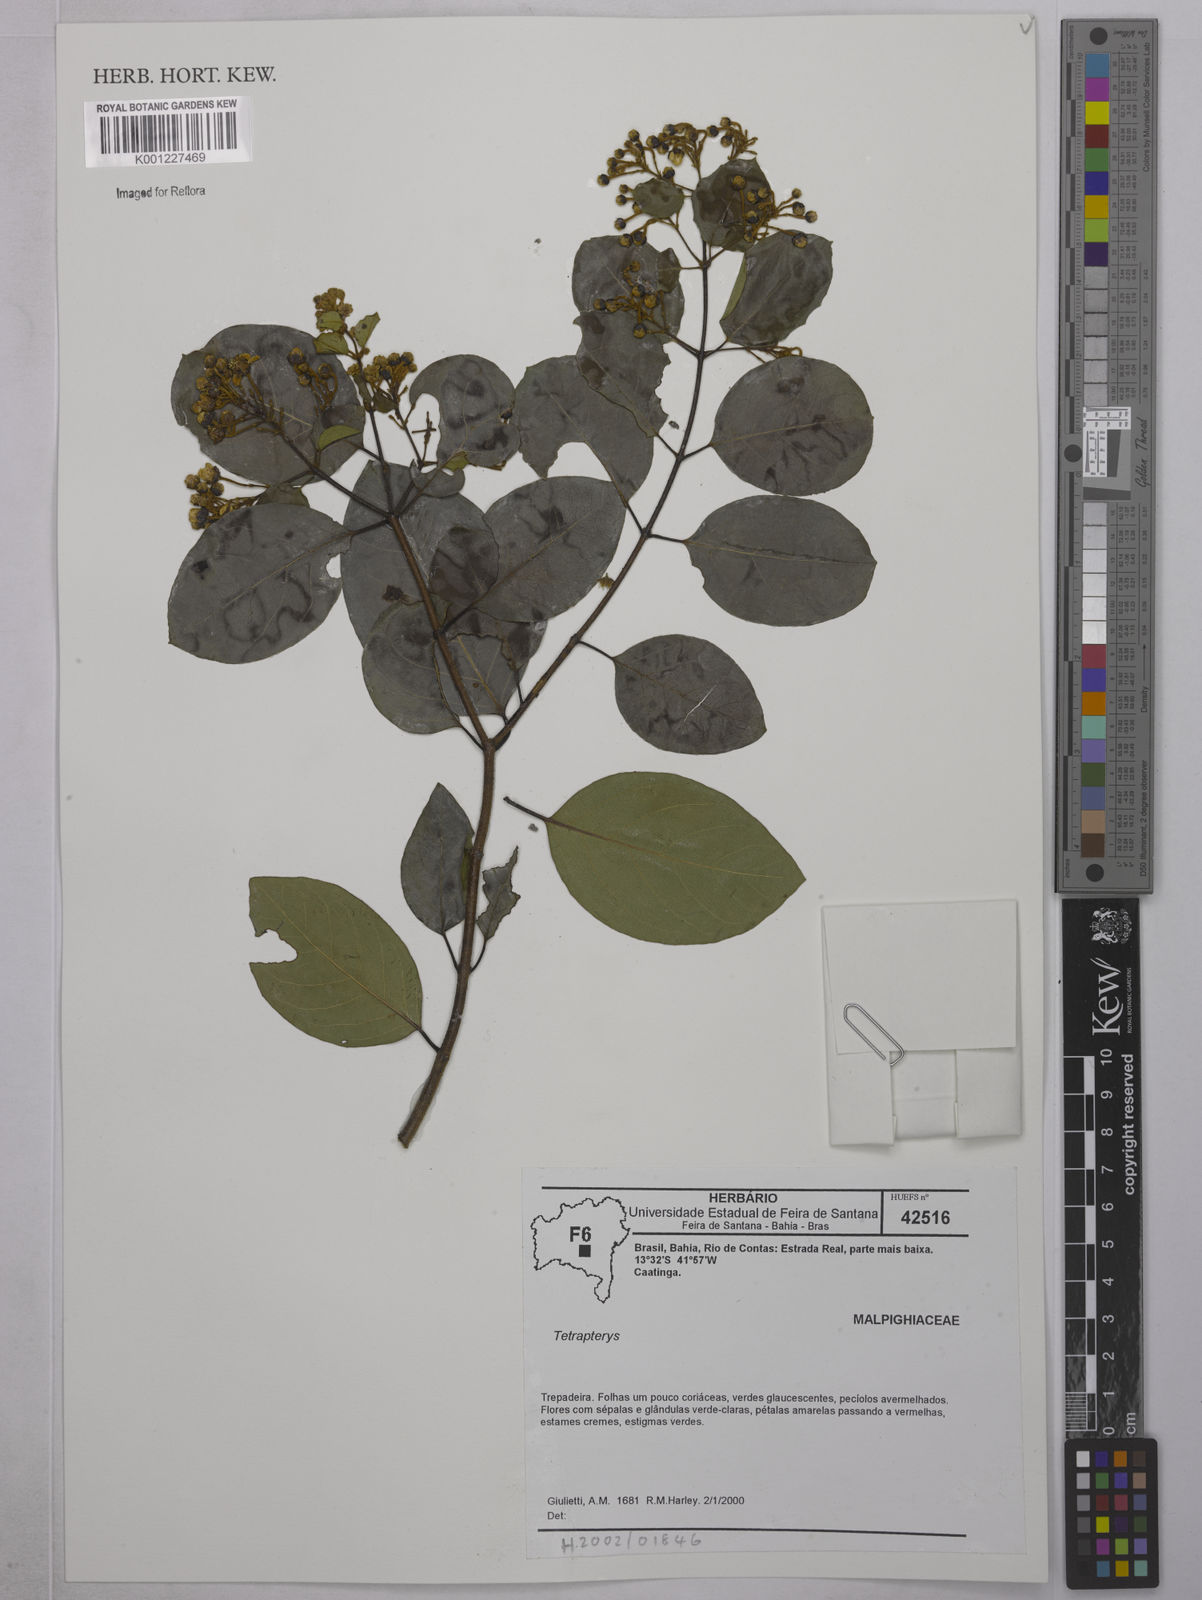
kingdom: Plantae
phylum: Tracheophyta
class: Magnoliopsida
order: Malpighiales
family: Malpighiaceae
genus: Tetrapterys
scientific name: Tetrapterys
